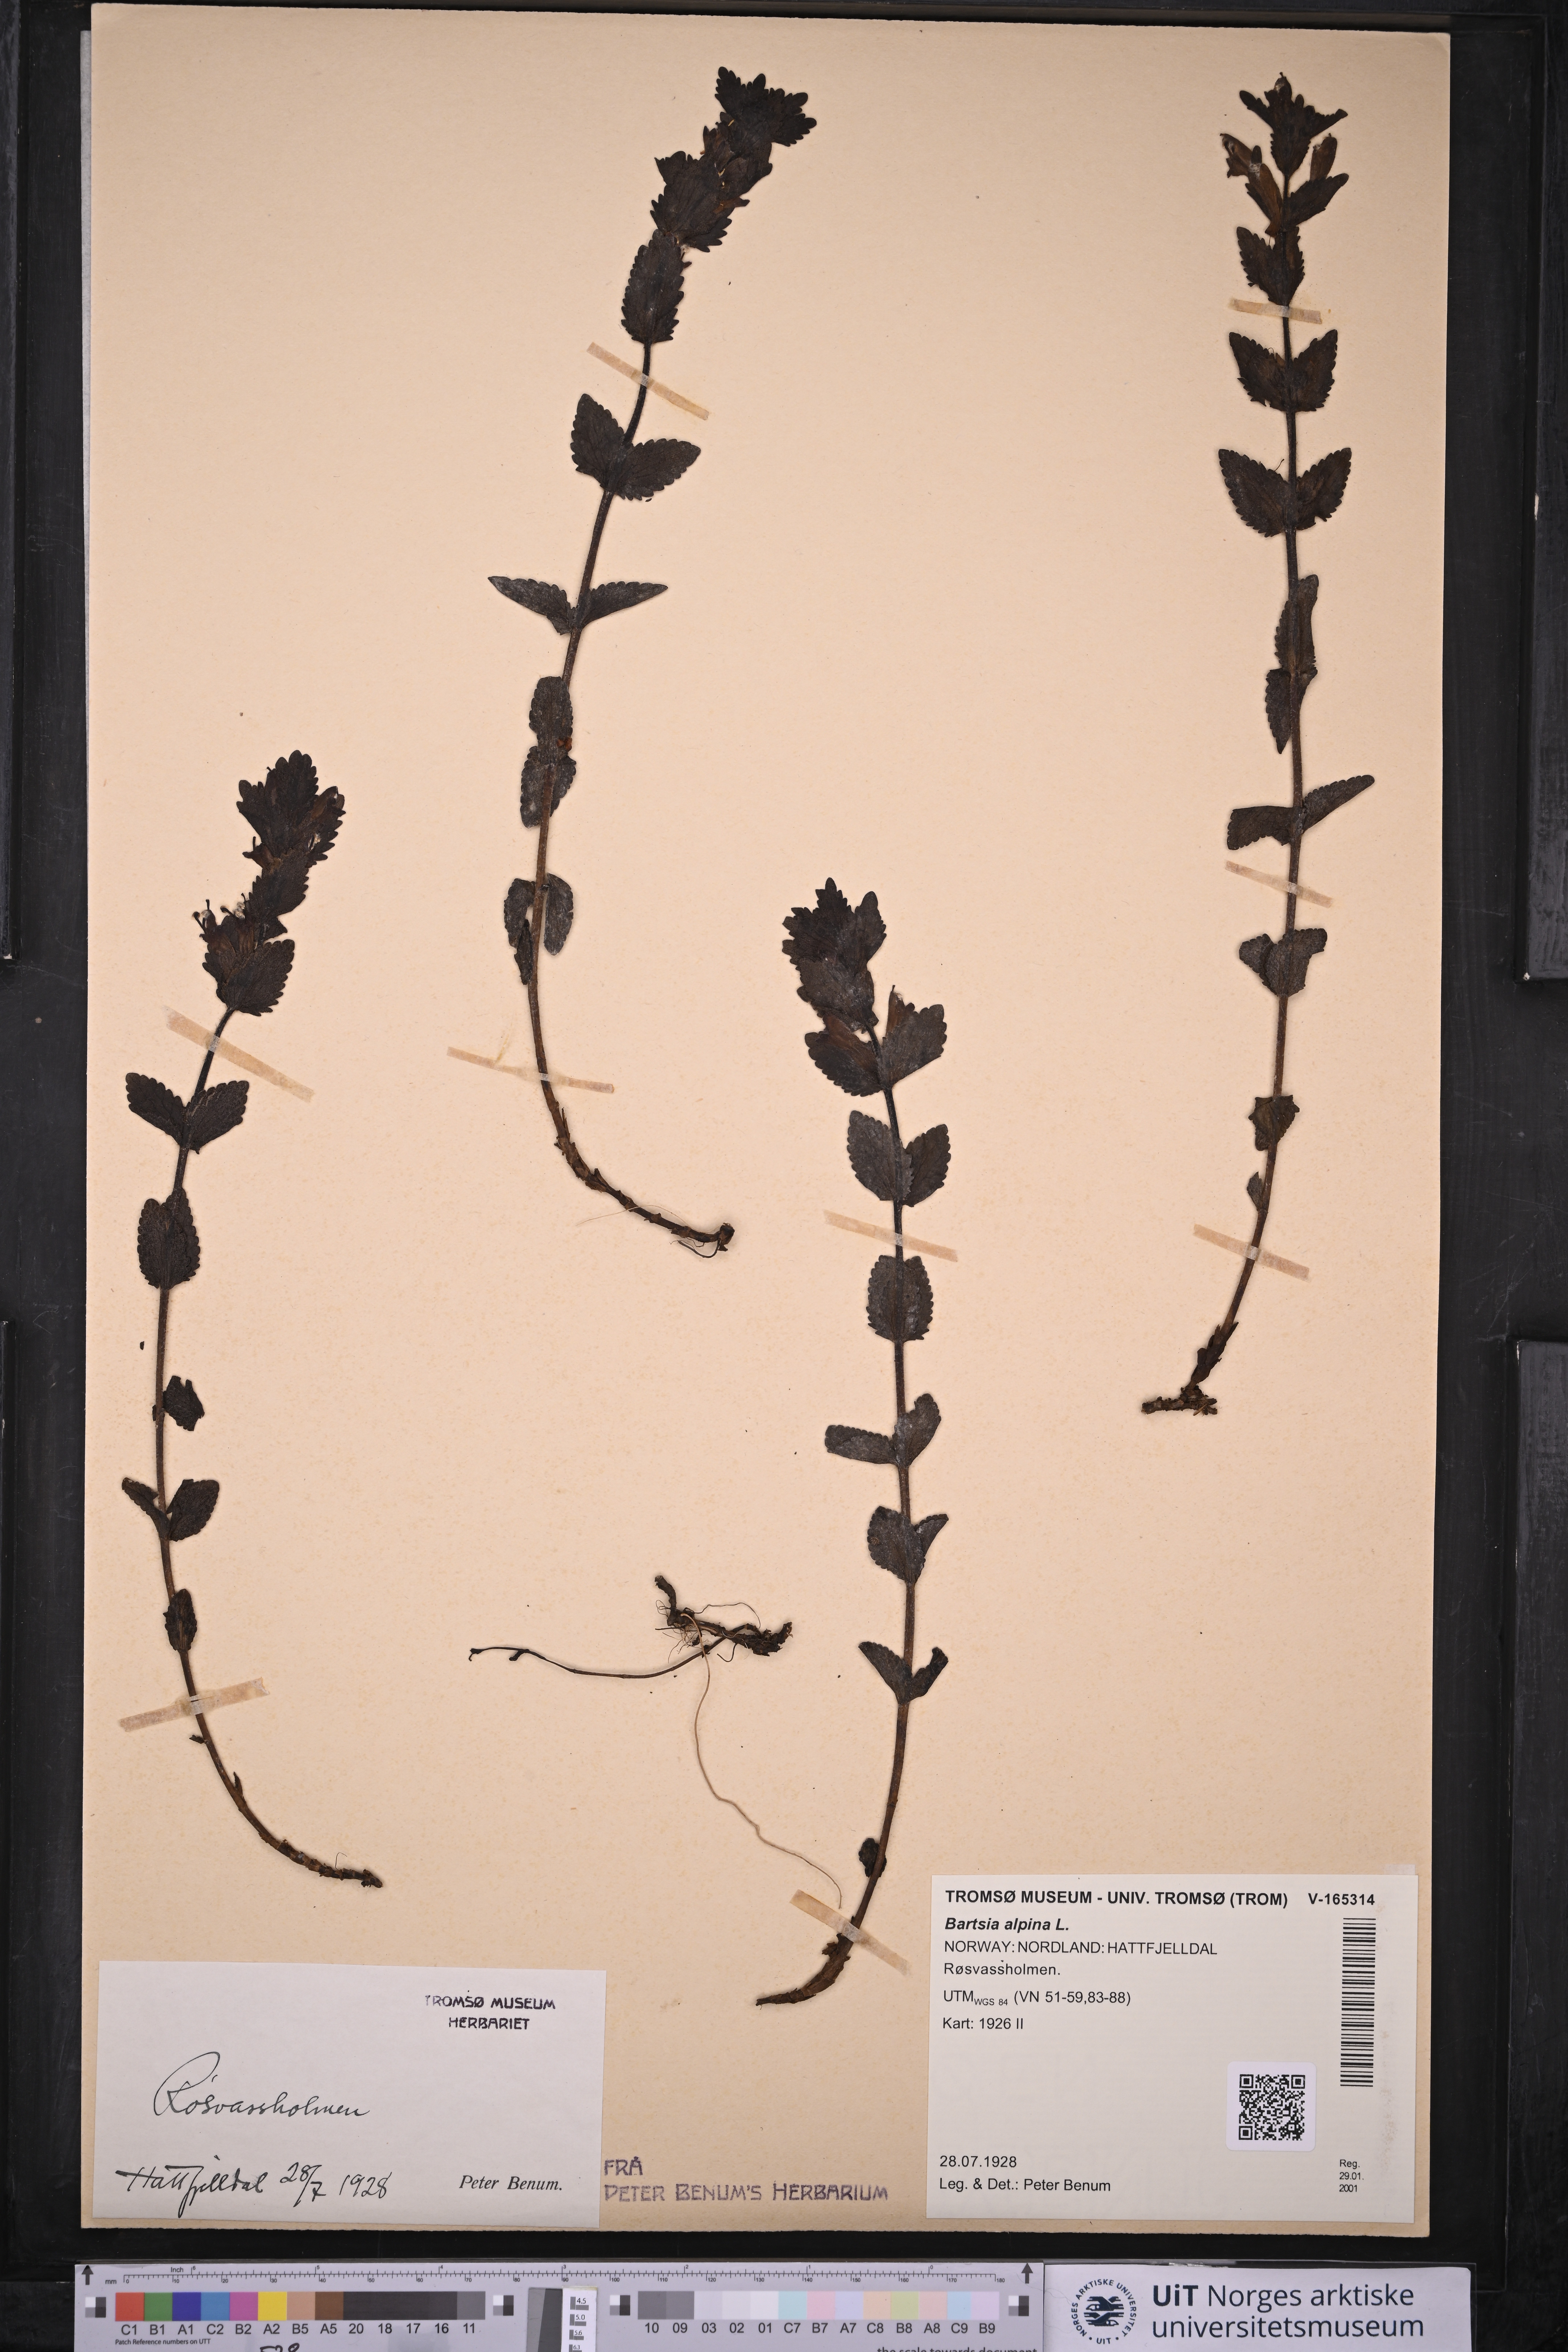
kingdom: Plantae
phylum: Tracheophyta
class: Magnoliopsida
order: Lamiales
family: Orobanchaceae
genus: Bartsia
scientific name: Bartsia alpina
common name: Alpine bartsia
